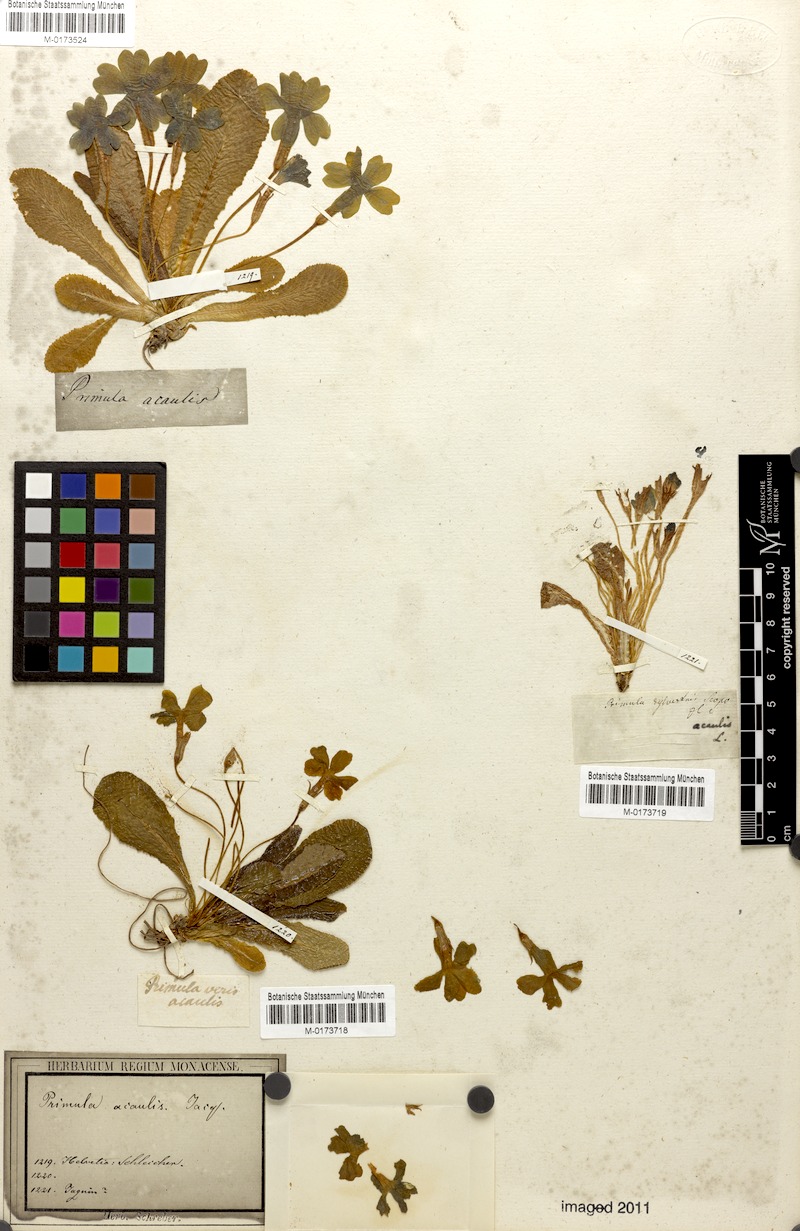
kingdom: Plantae
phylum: Tracheophyta
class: Magnoliopsida
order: Ericales
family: Primulaceae
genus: Primula
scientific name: Primula vulgaris
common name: Primrose
